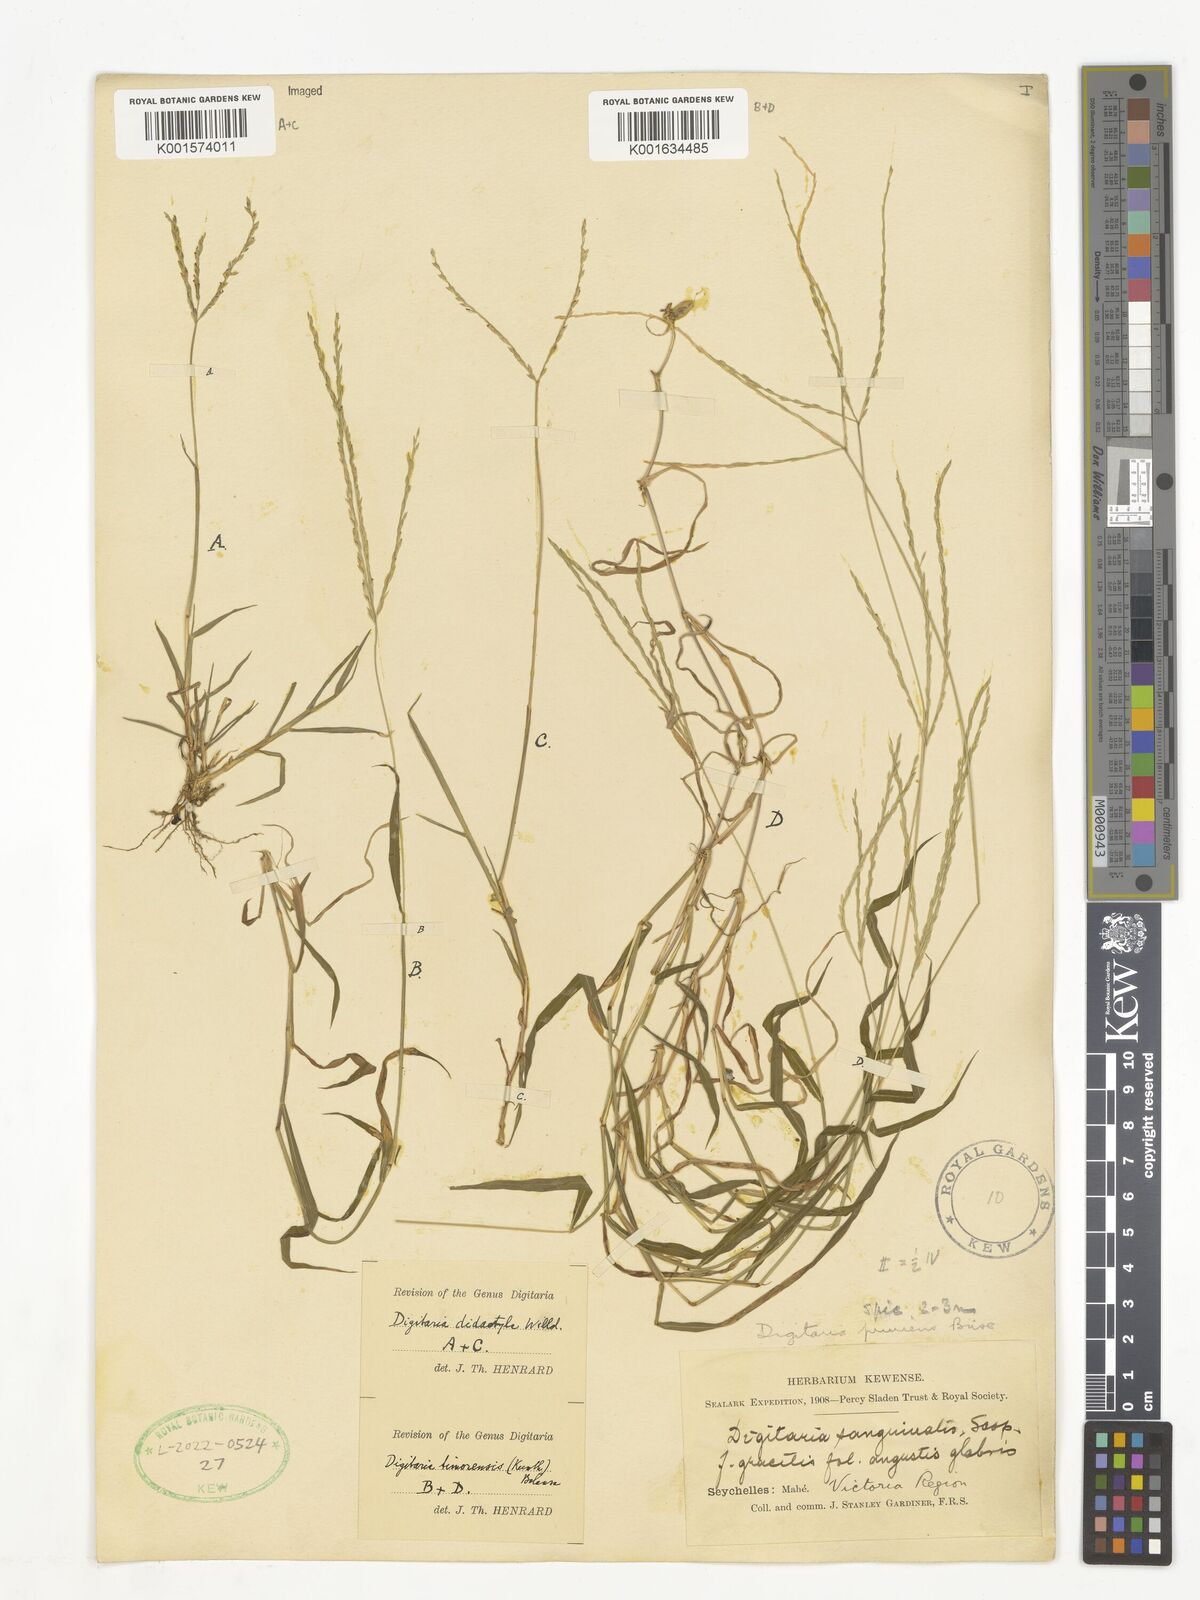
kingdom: Plantae
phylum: Tracheophyta
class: Liliopsida
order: Poales
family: Poaceae
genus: Digitaria
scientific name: Digitaria radicosa
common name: Trailing crabgrass
